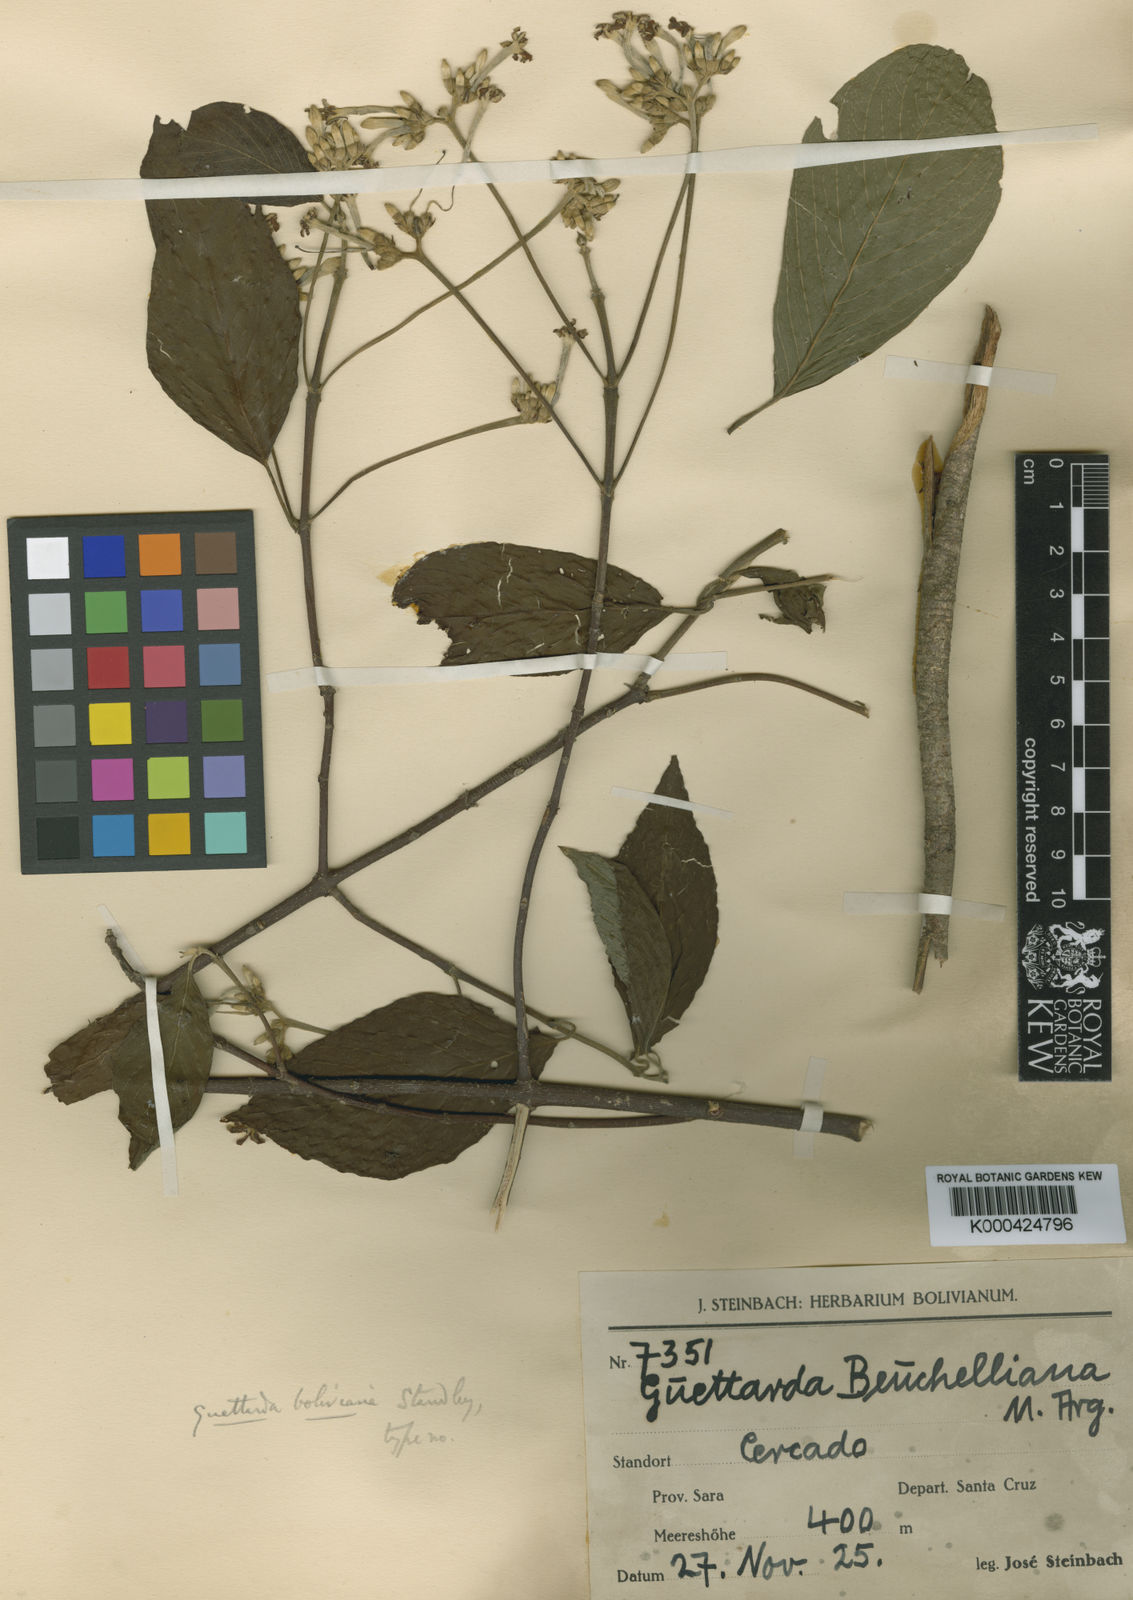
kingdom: Plantae
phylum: Tracheophyta
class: Magnoliopsida
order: Gentianales
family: Rubiaceae
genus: Guettarda
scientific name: Guettarda pohliana
